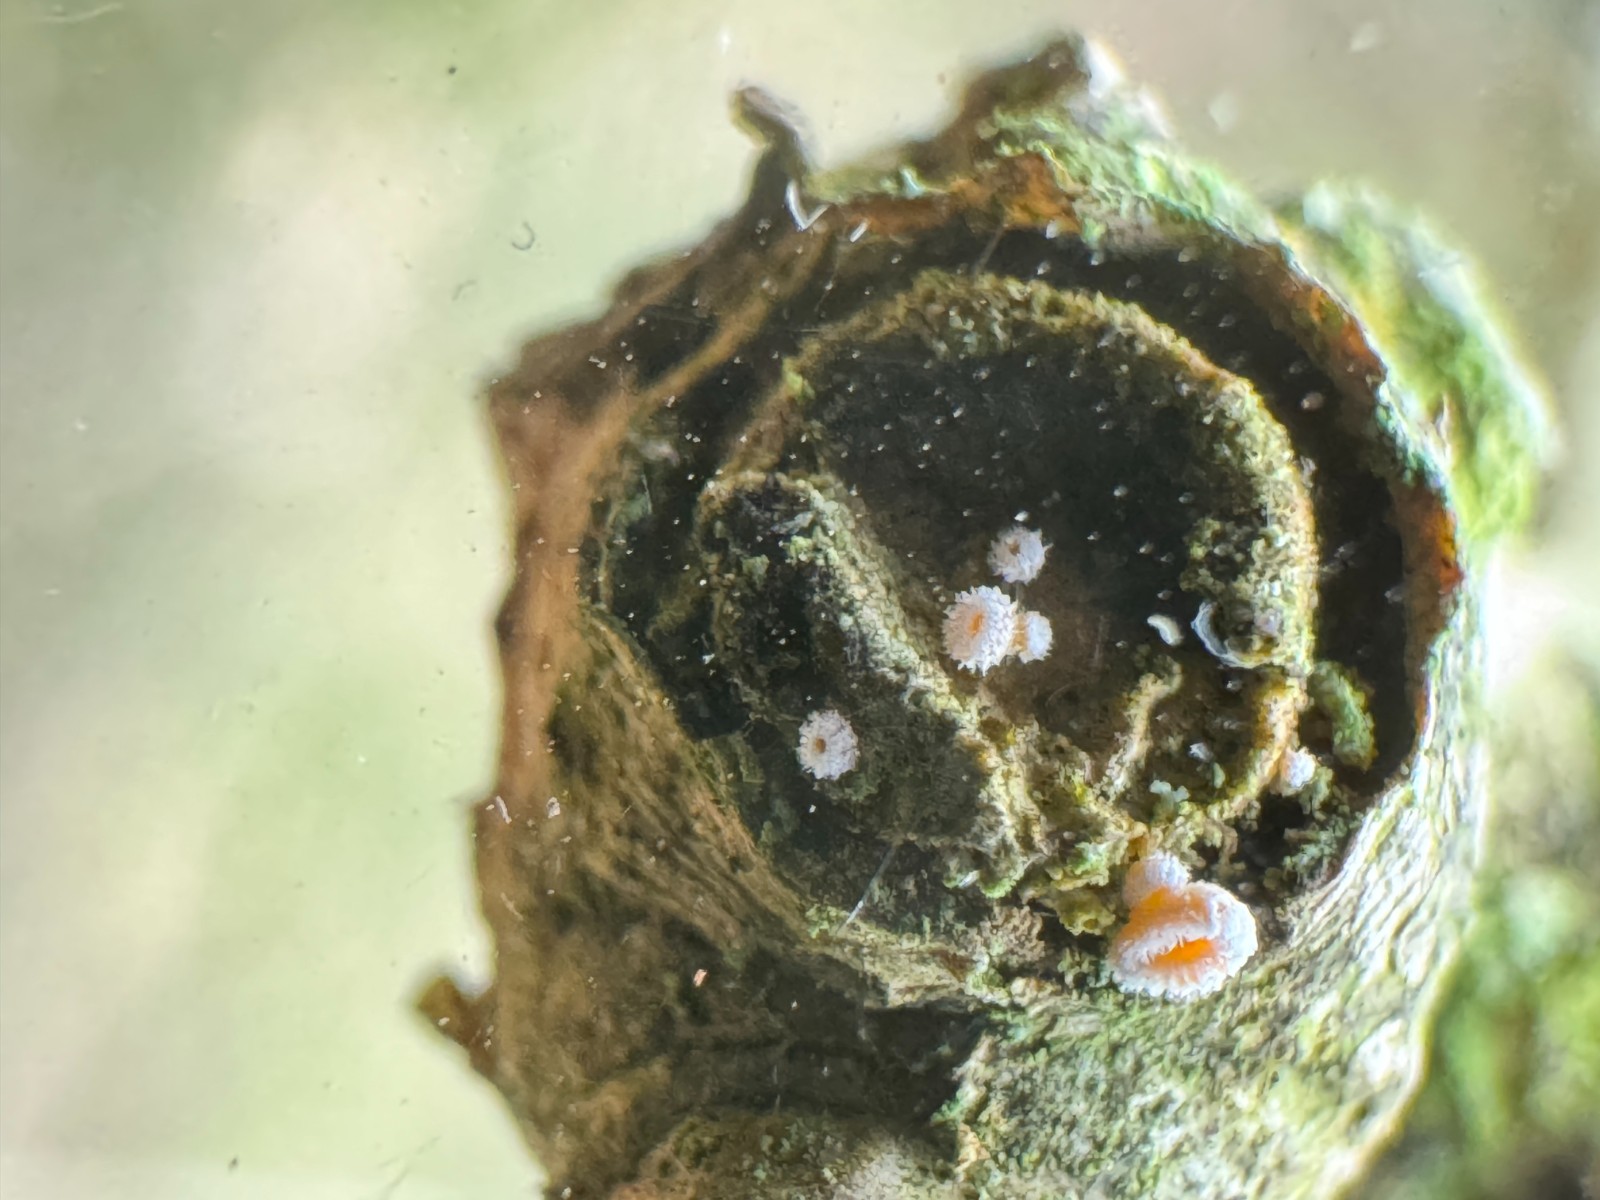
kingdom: Fungi
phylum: Ascomycota
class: Leotiomycetes
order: Helotiales
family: Lachnaceae
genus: Capitotricha
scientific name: Capitotricha bicolor
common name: prægtig frynseskive
